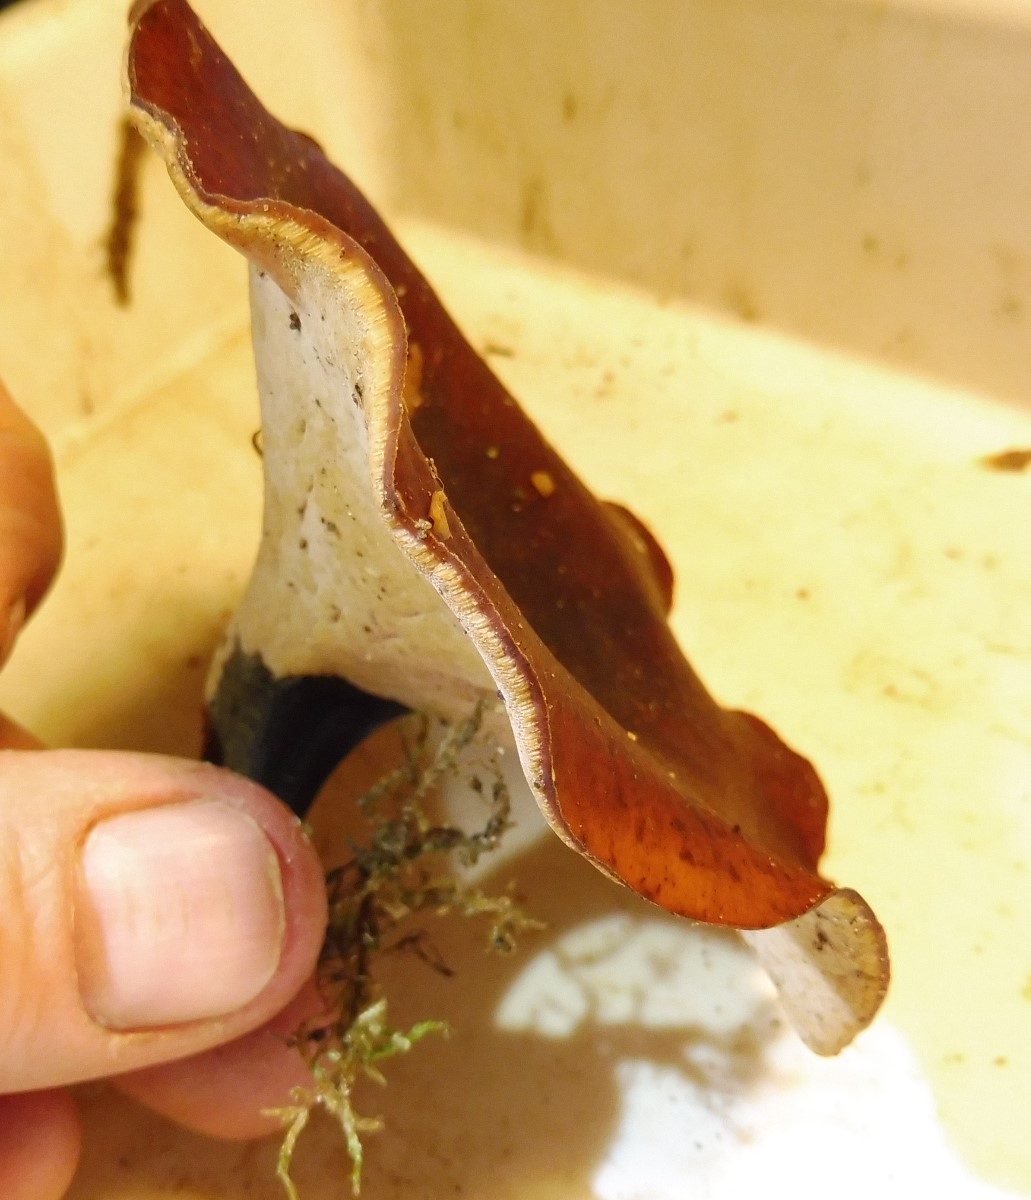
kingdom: Fungi
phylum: Basidiomycota
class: Agaricomycetes
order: Polyporales
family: Polyporaceae
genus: Picipes
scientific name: Picipes badius
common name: kastaniebrun stilkporesvamp
